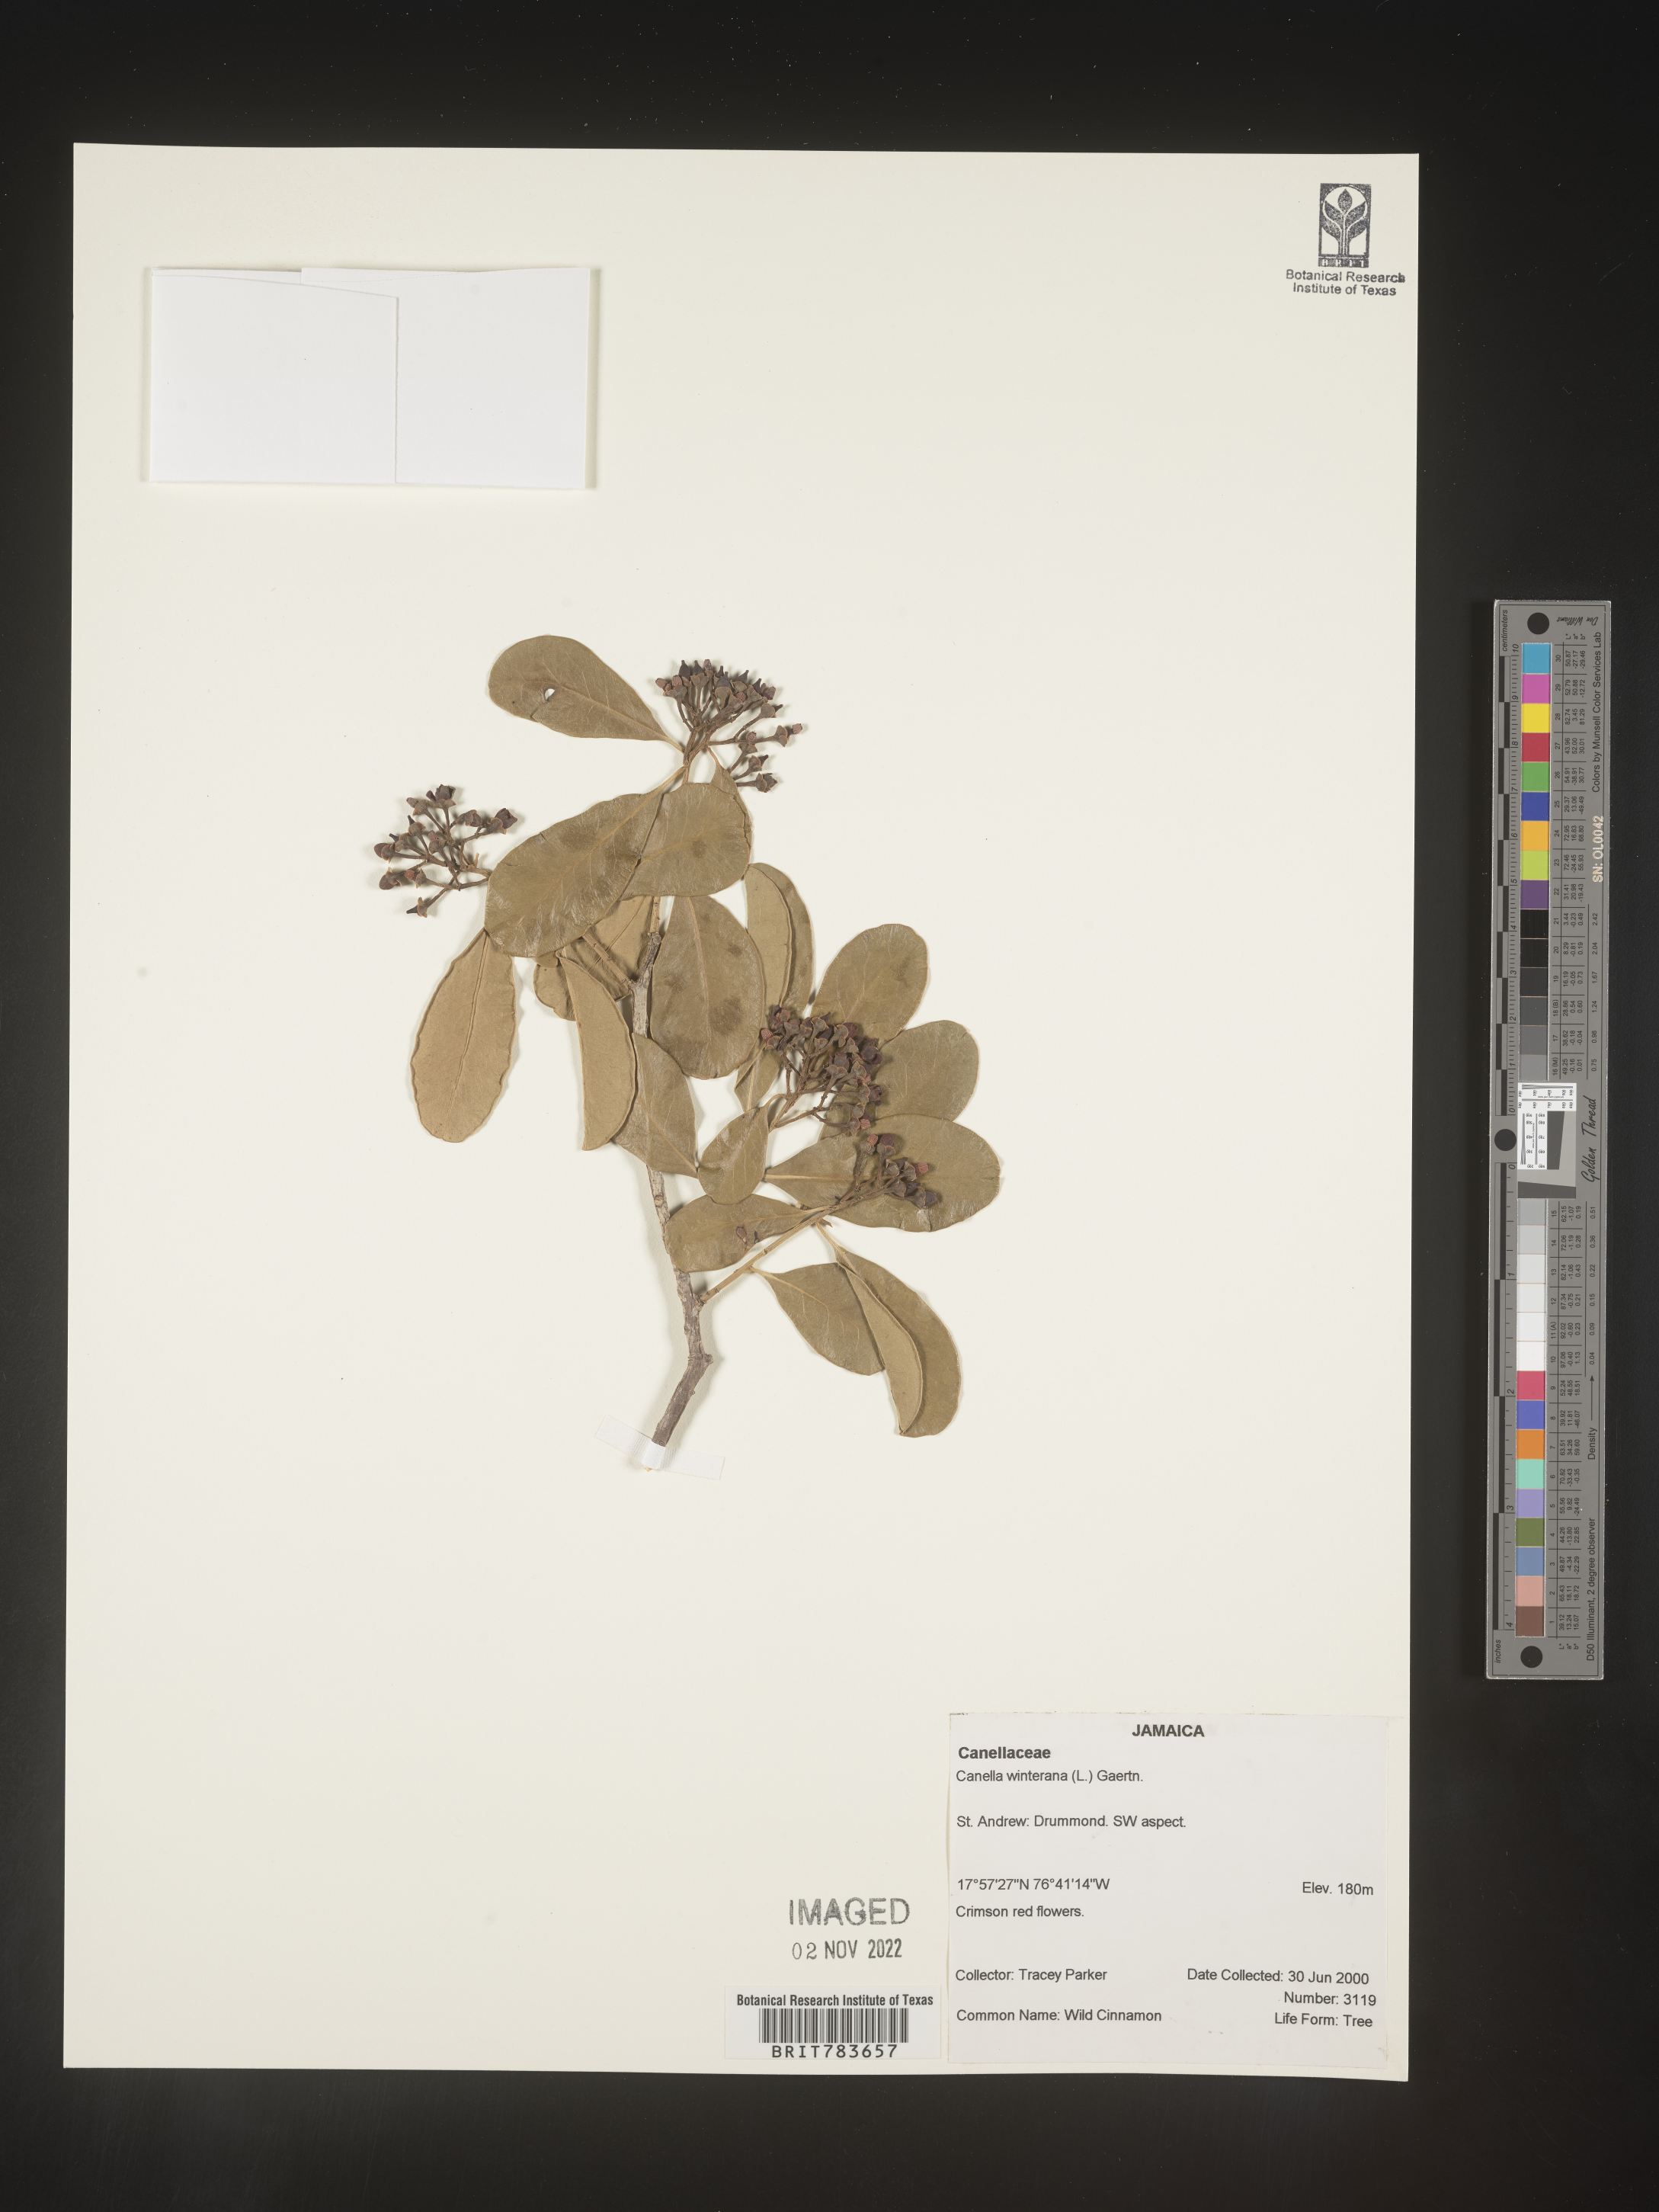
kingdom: Plantae
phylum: Tracheophyta
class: Magnoliopsida
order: Canellales
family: Canellaceae
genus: Canella
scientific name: Canella
